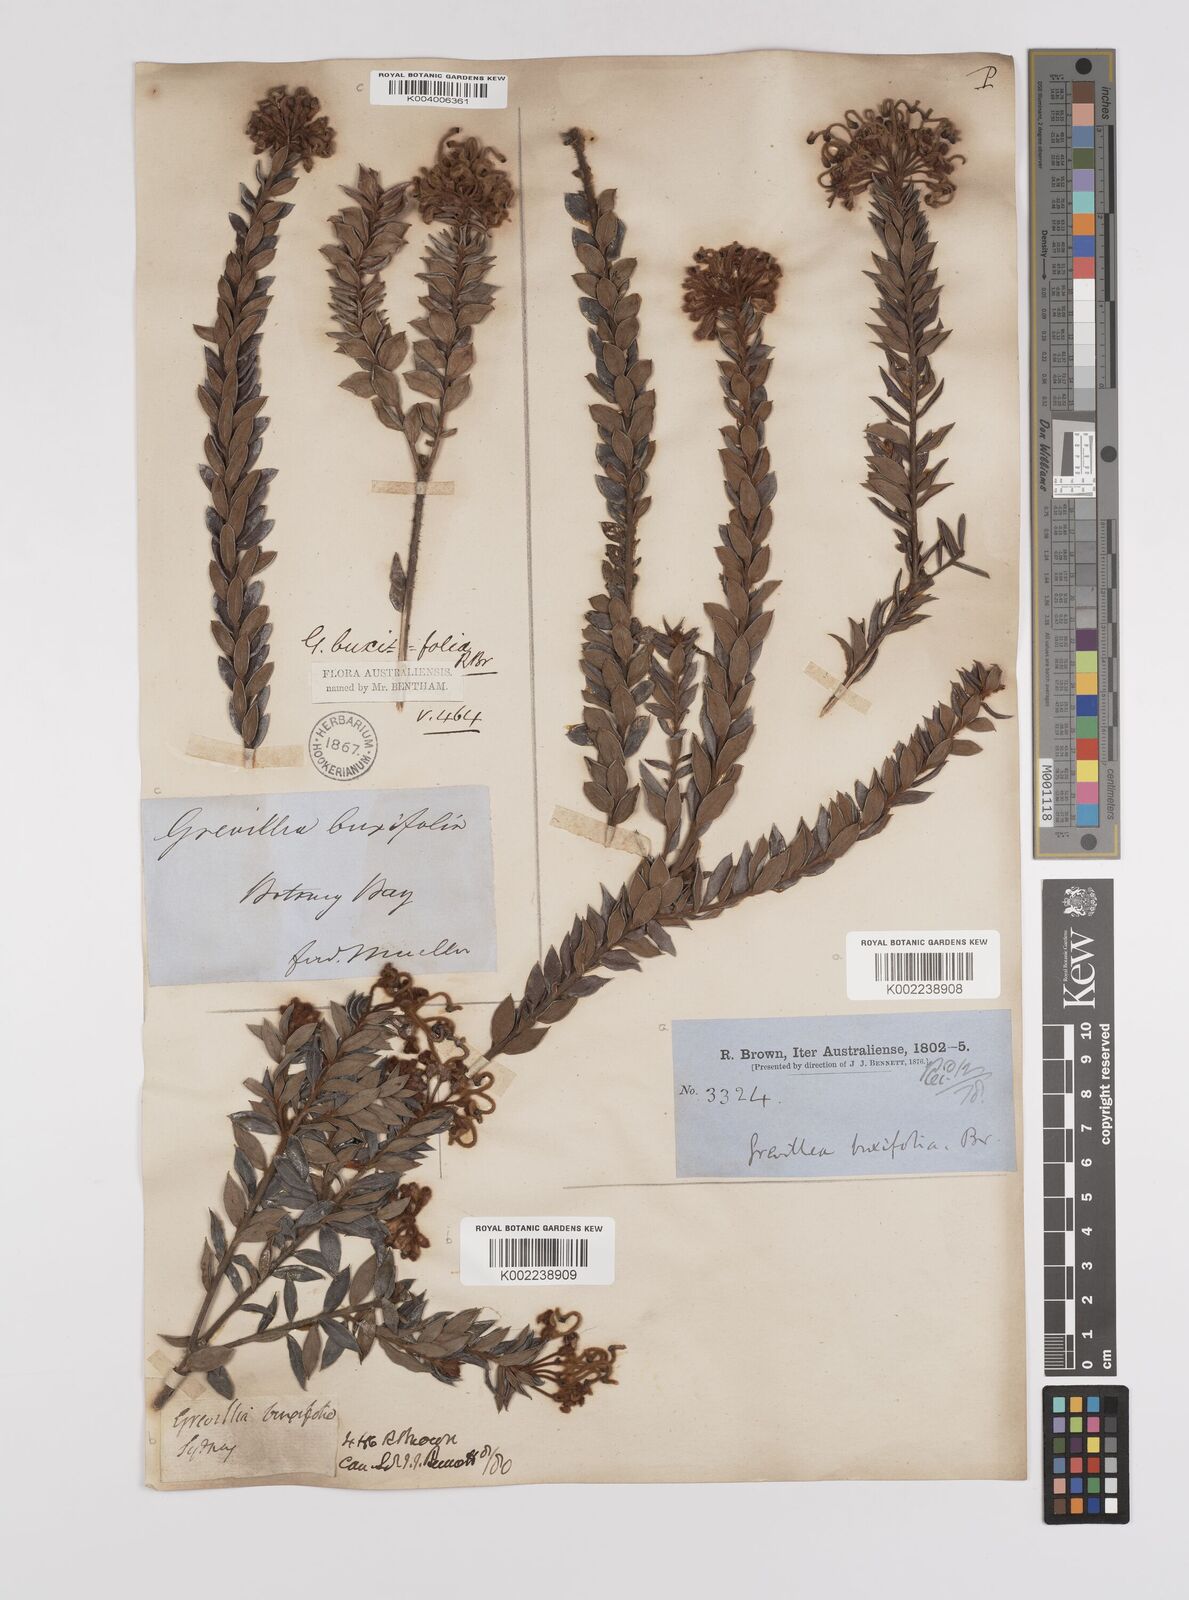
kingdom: Plantae
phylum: Tracheophyta
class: Magnoliopsida
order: Proteales
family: Proteaceae
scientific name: Proteaceae
